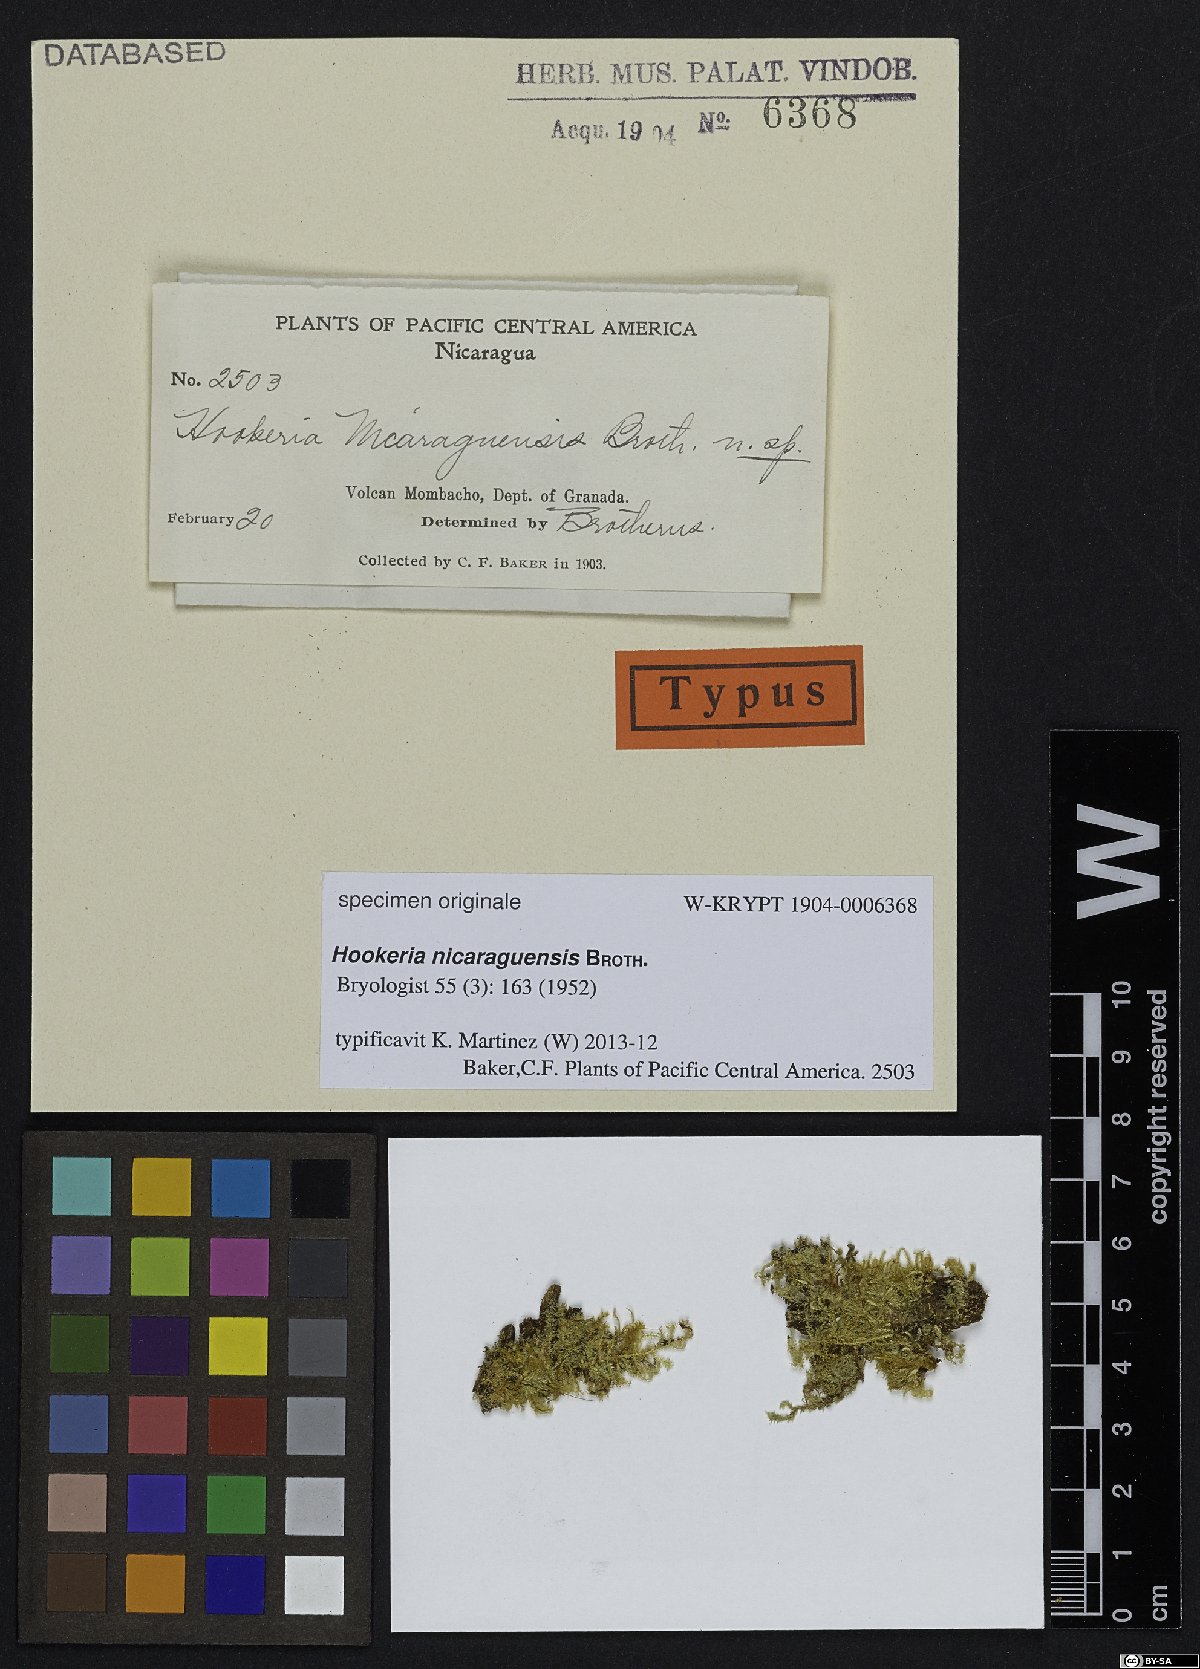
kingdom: Plantae
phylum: Bryophyta
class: Bryopsida
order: Hookeriales
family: Hookeriaceae
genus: Hookeria
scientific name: Hookeria
